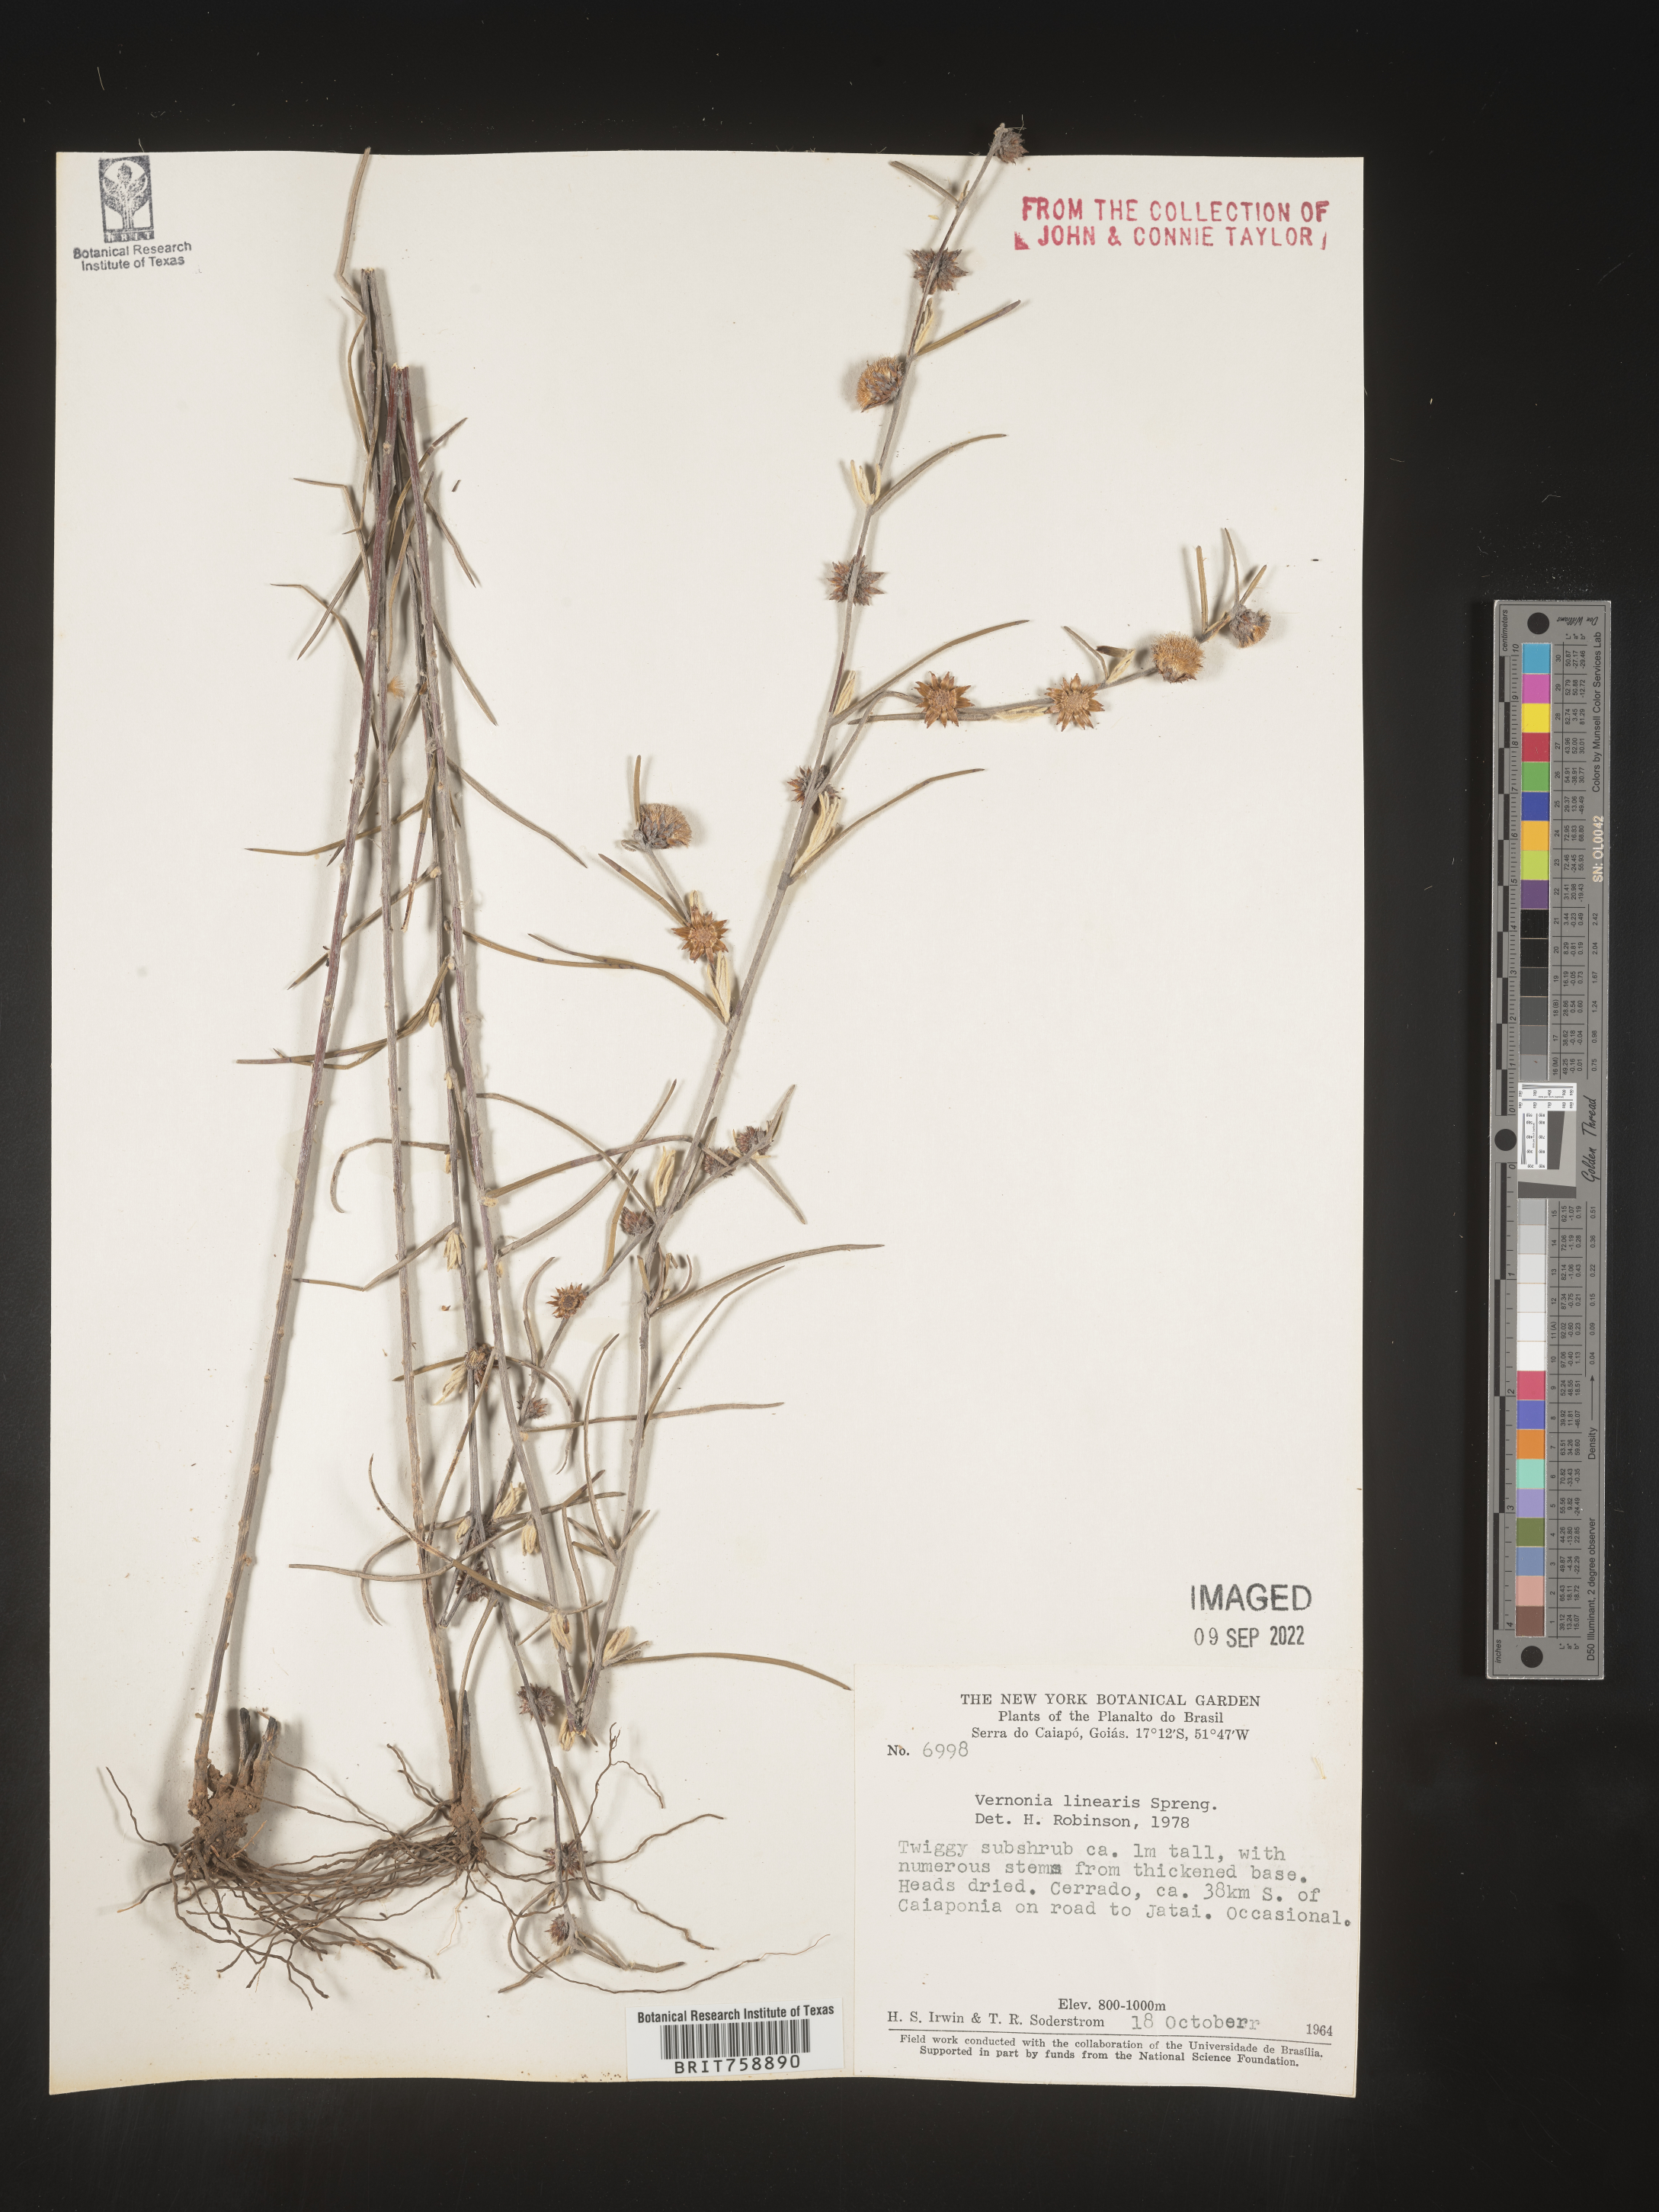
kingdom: Plantae
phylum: Tracheophyta
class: Magnoliopsida
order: Asterales
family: Asteraceae
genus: Vernonia
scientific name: Vernonia
